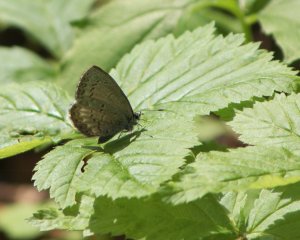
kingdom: Animalia
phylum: Arthropoda
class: Insecta
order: Lepidoptera
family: Lycaenidae
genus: Celastrina
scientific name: Celastrina lucia
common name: Northern Spring Azure
